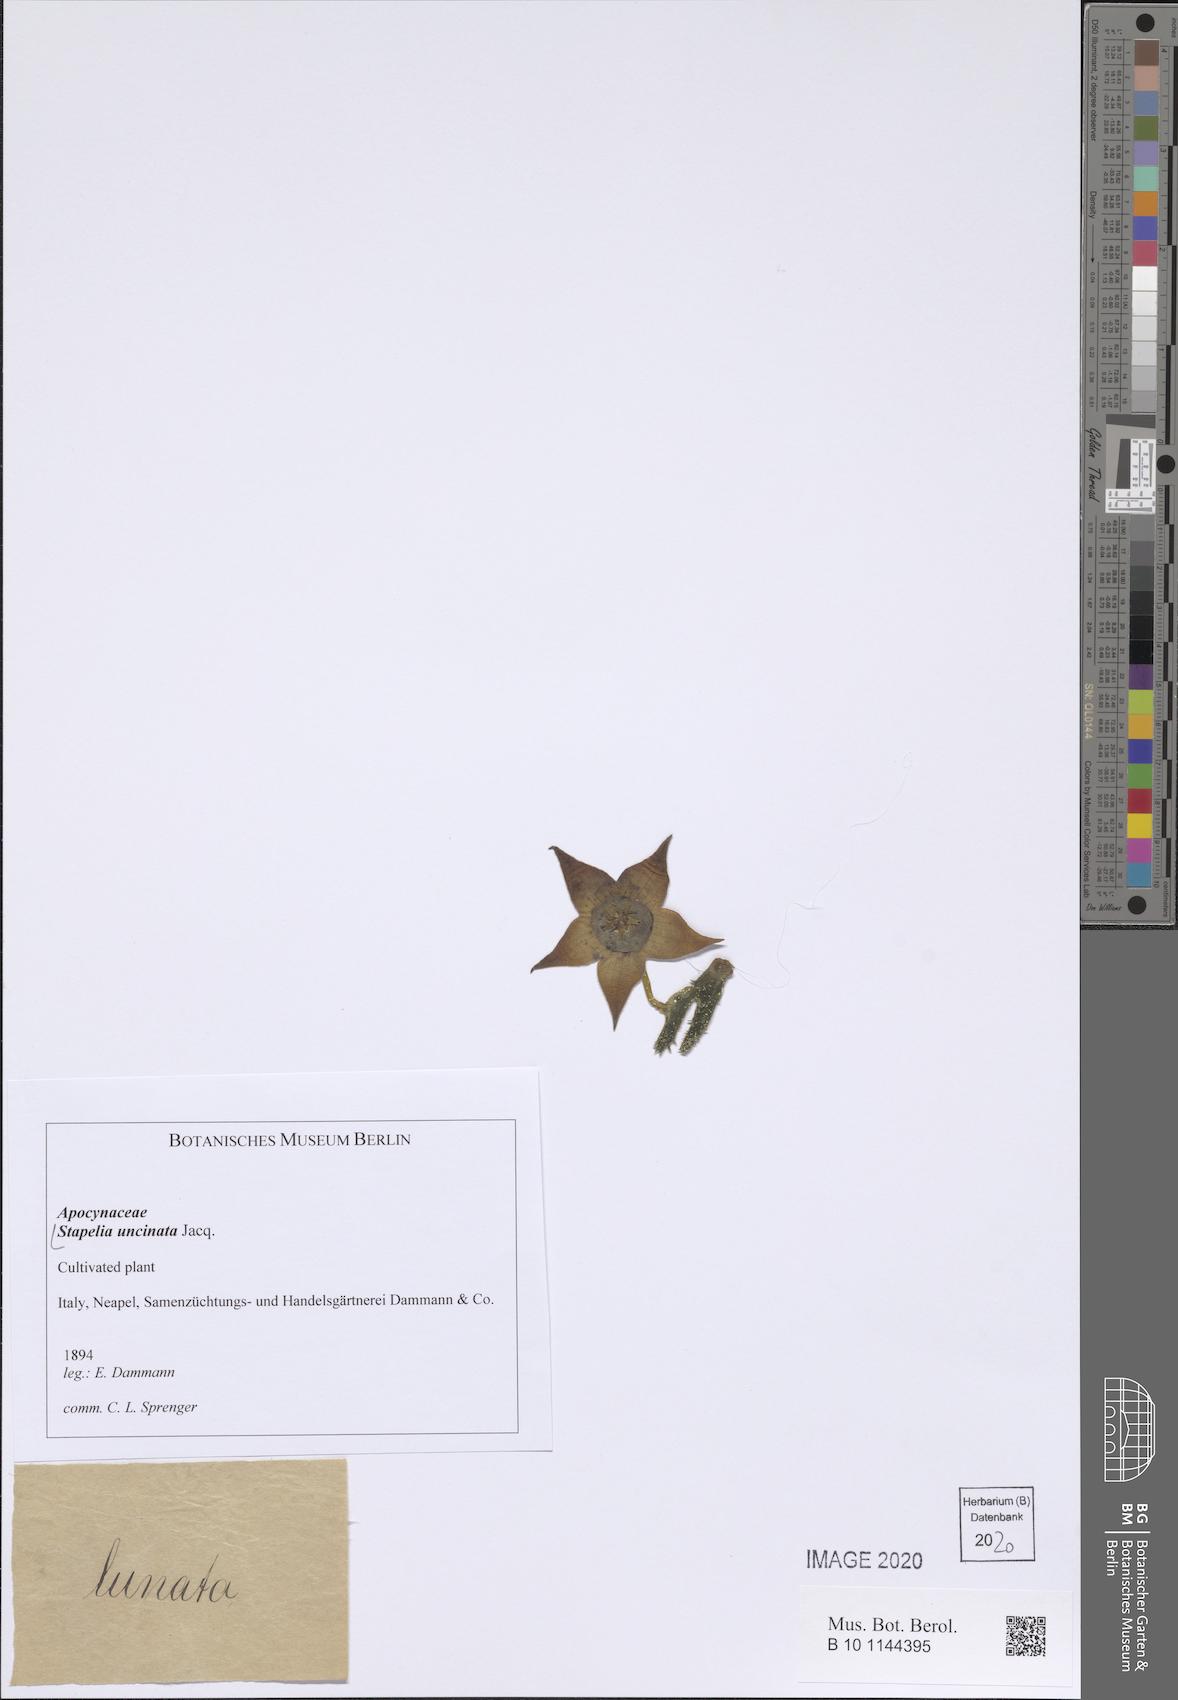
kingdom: Plantae
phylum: Tracheophyta
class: Magnoliopsida
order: Gentianales
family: Apocynaceae
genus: Stapelia
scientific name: Stapelia uncinata
